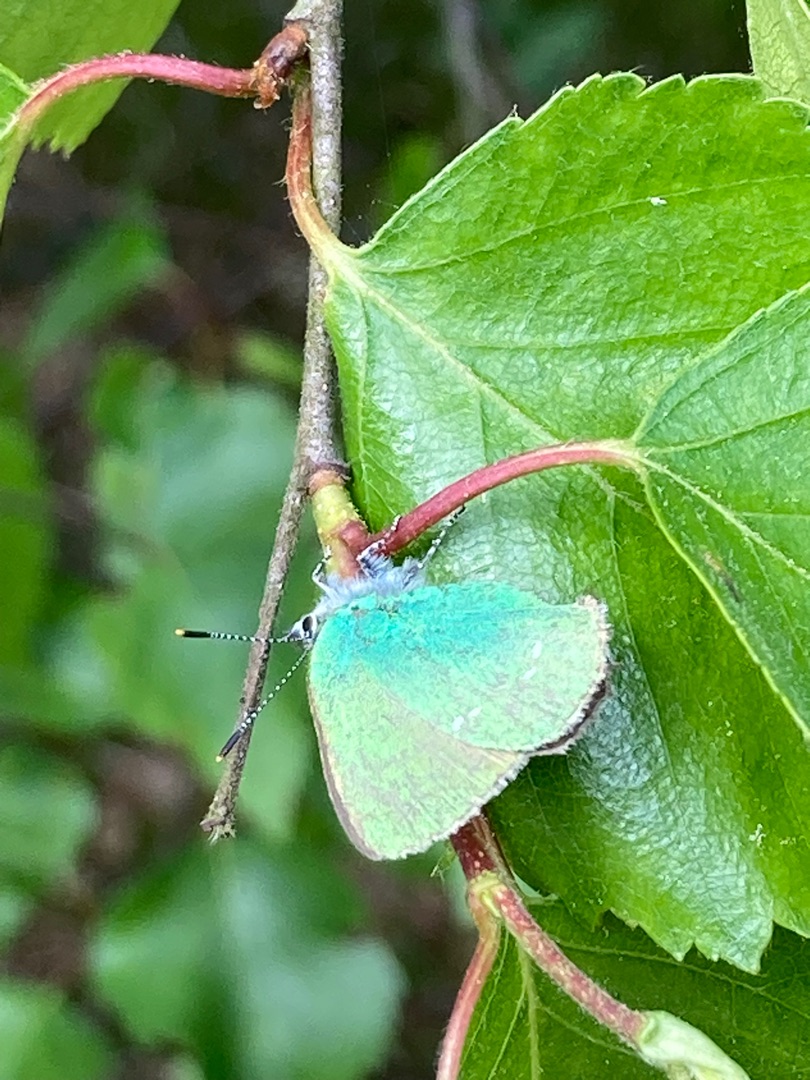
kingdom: Animalia
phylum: Arthropoda
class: Insecta
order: Lepidoptera
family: Lycaenidae
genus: Callophrys
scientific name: Callophrys rubi
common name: Grøn busksommerfugl
